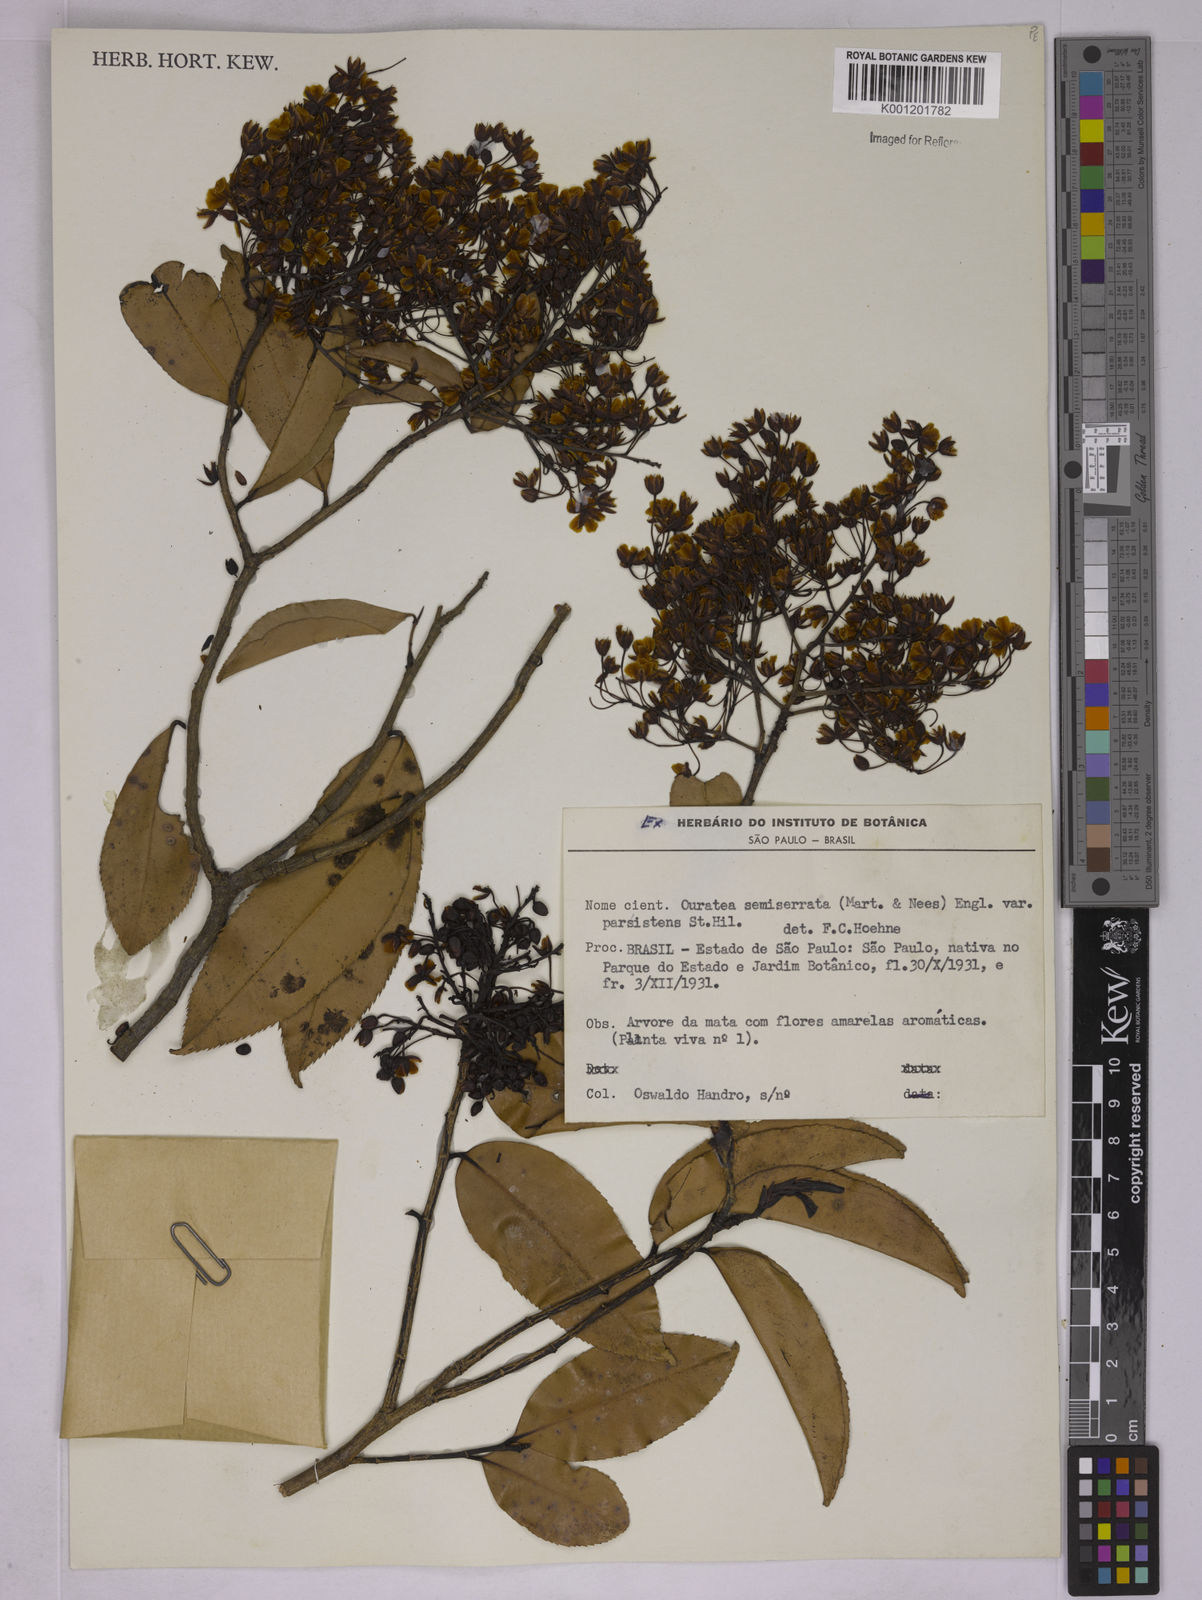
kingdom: Plantae
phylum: Tracheophyta
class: Magnoliopsida
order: Malpighiales
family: Ochnaceae
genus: Ouratea
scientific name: Ouratea semiserrata
